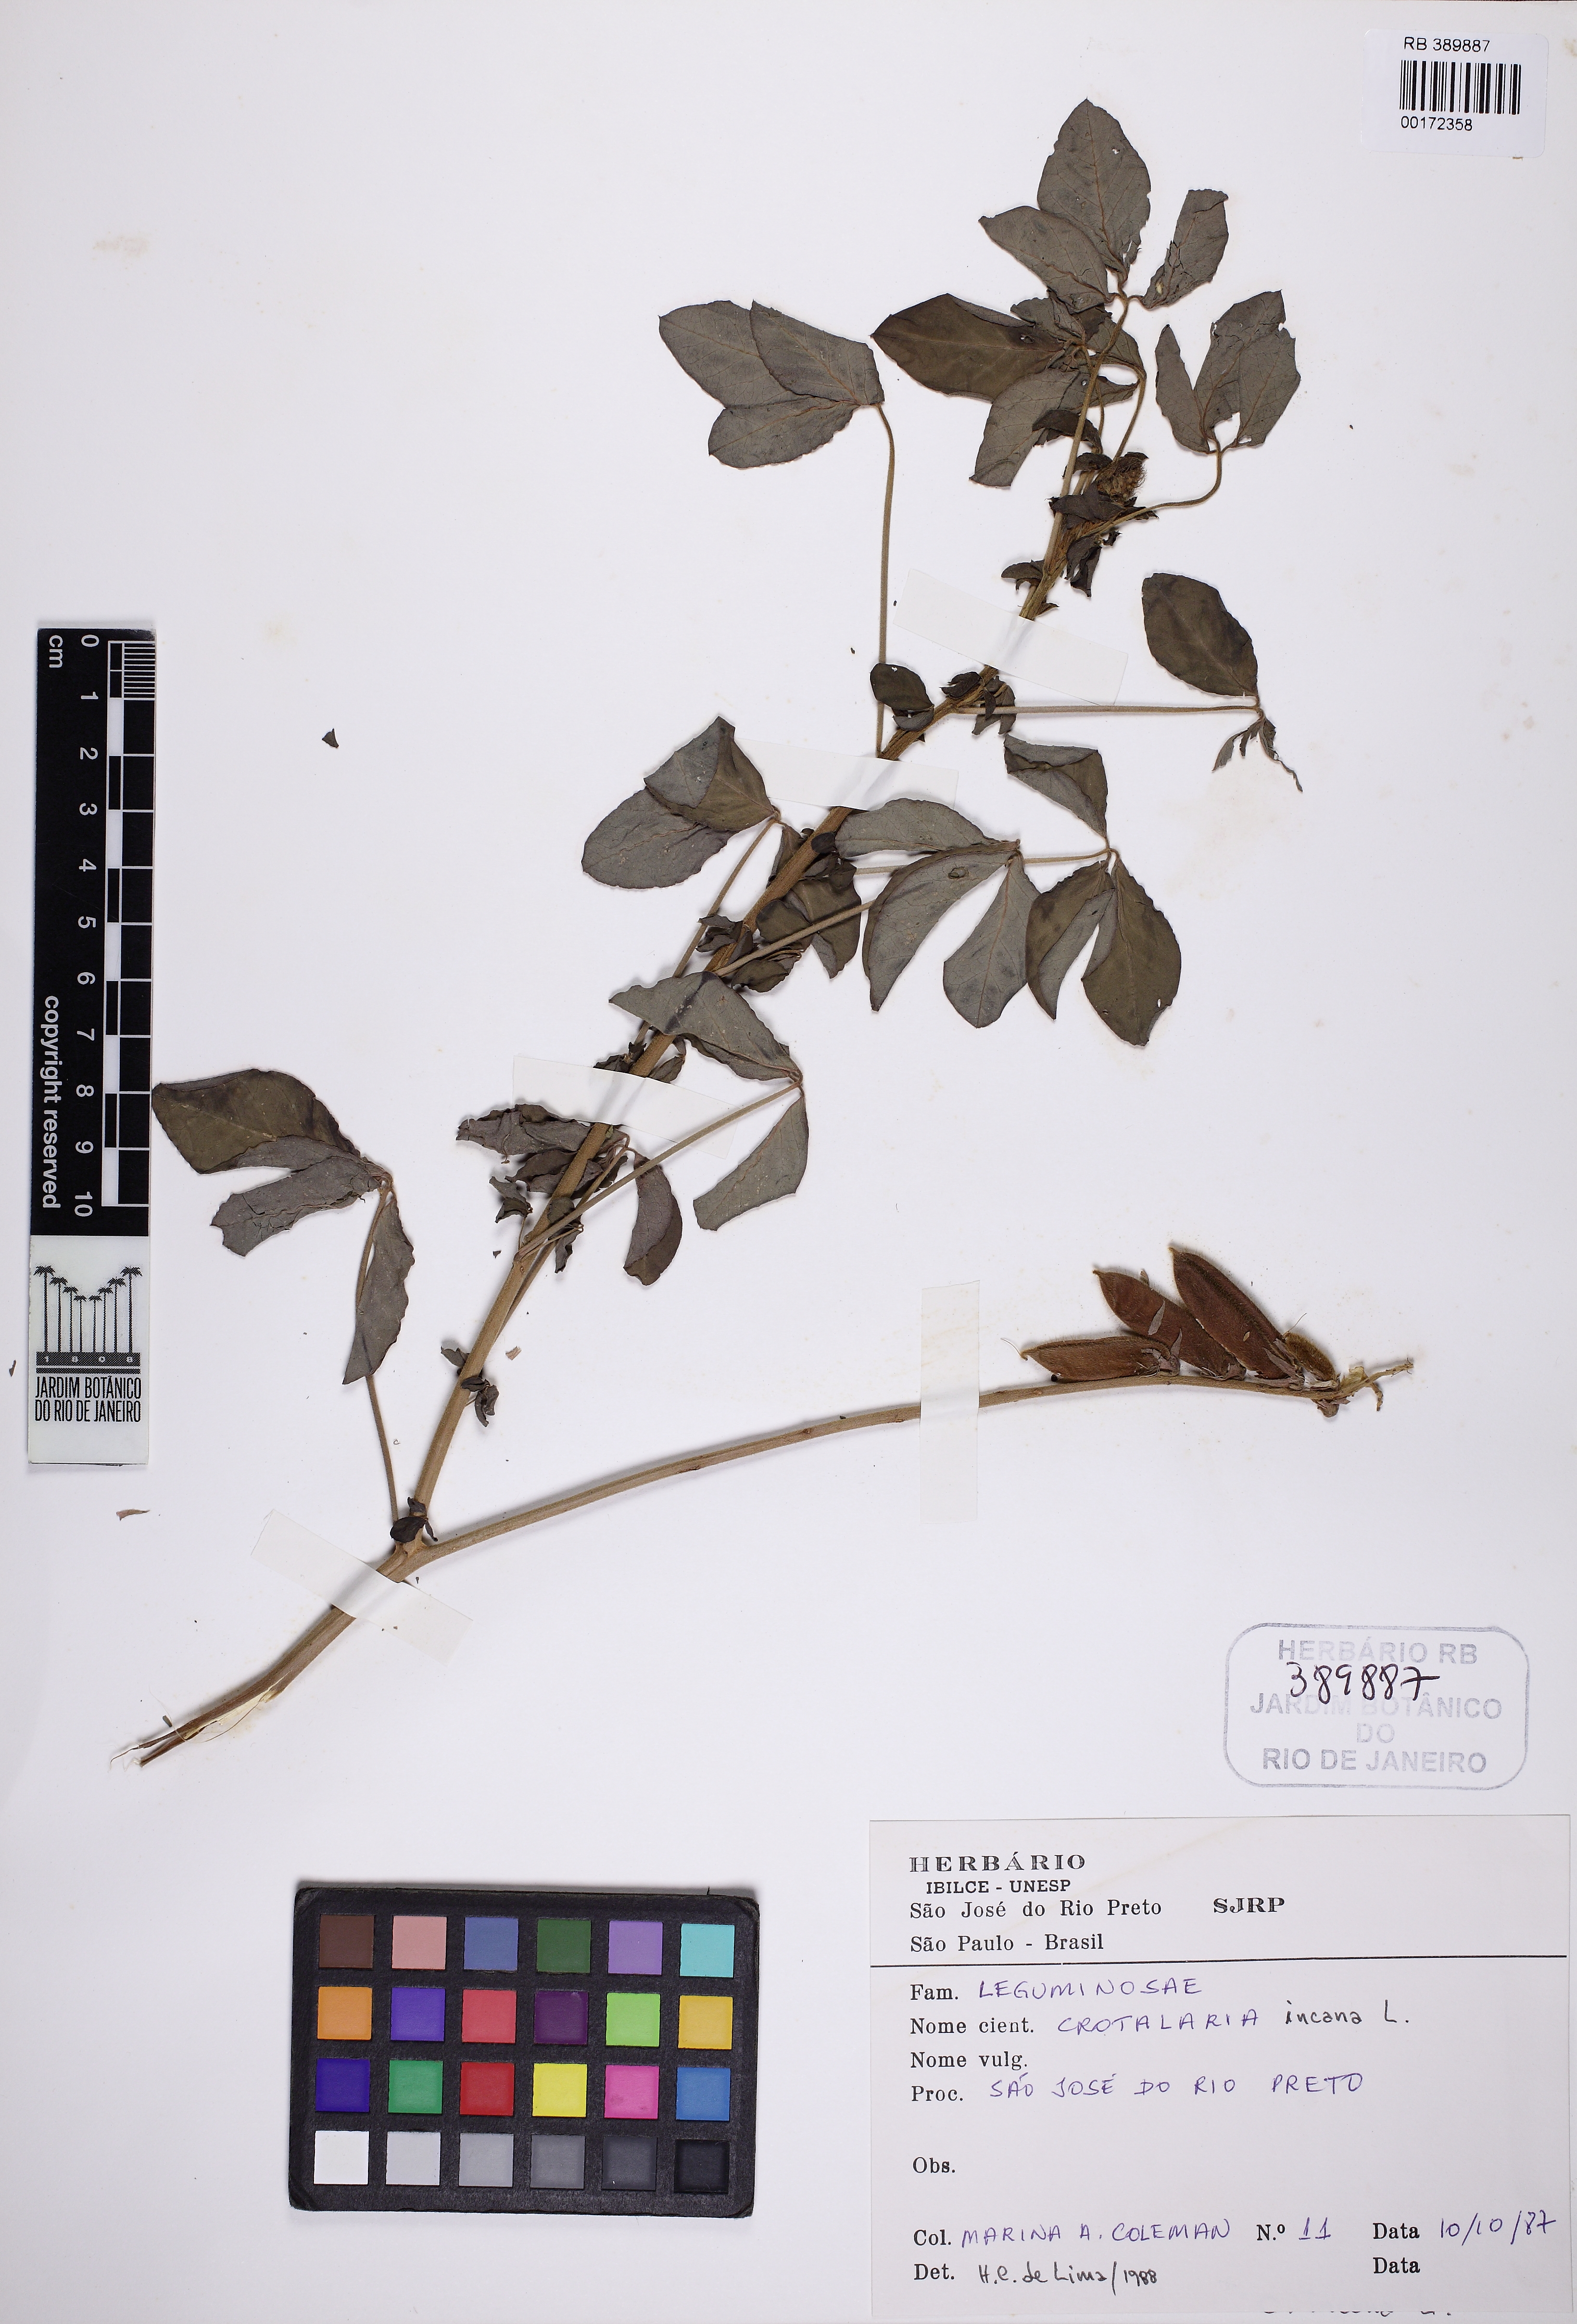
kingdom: Plantae
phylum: Tracheophyta
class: Magnoliopsida
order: Fabales
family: Fabaceae
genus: Crotalaria
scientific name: Crotalaria incana
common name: Shakeshake
